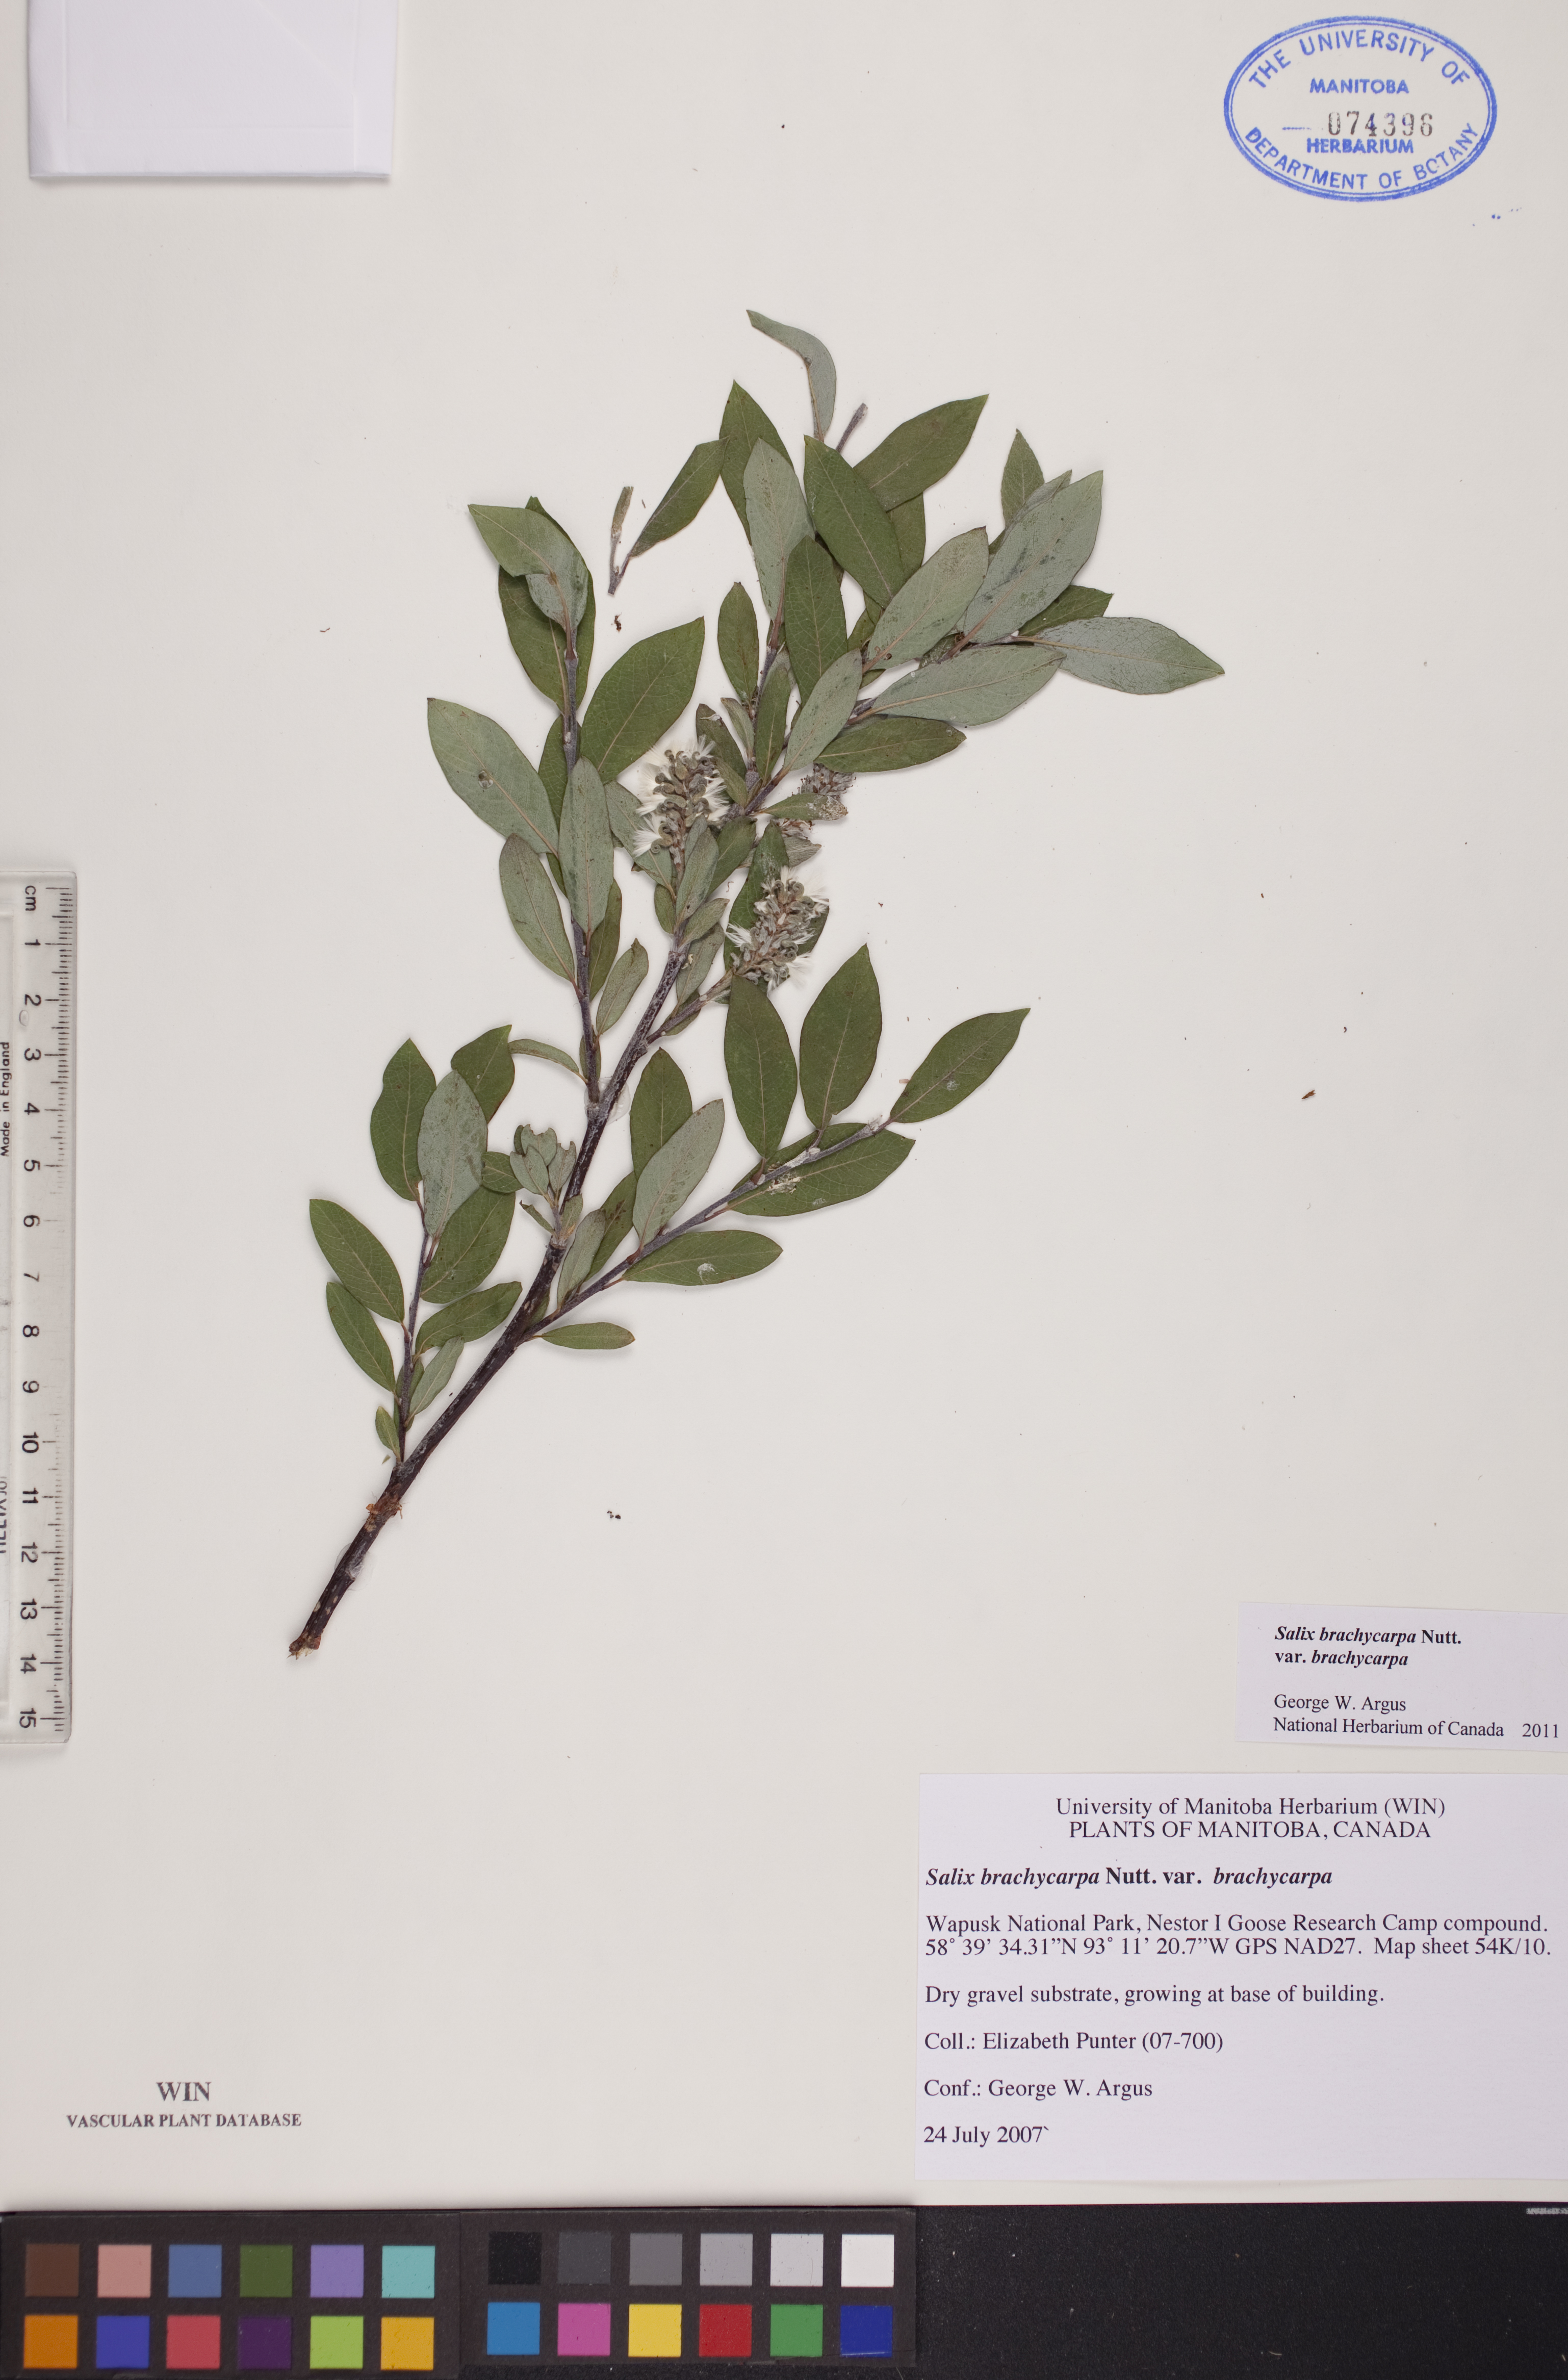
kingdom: Plantae
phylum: Tracheophyta
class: Magnoliopsida
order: Malpighiales
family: Salicaceae
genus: Salix
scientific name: Salix brachycarpa
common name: Barren-ground willow
